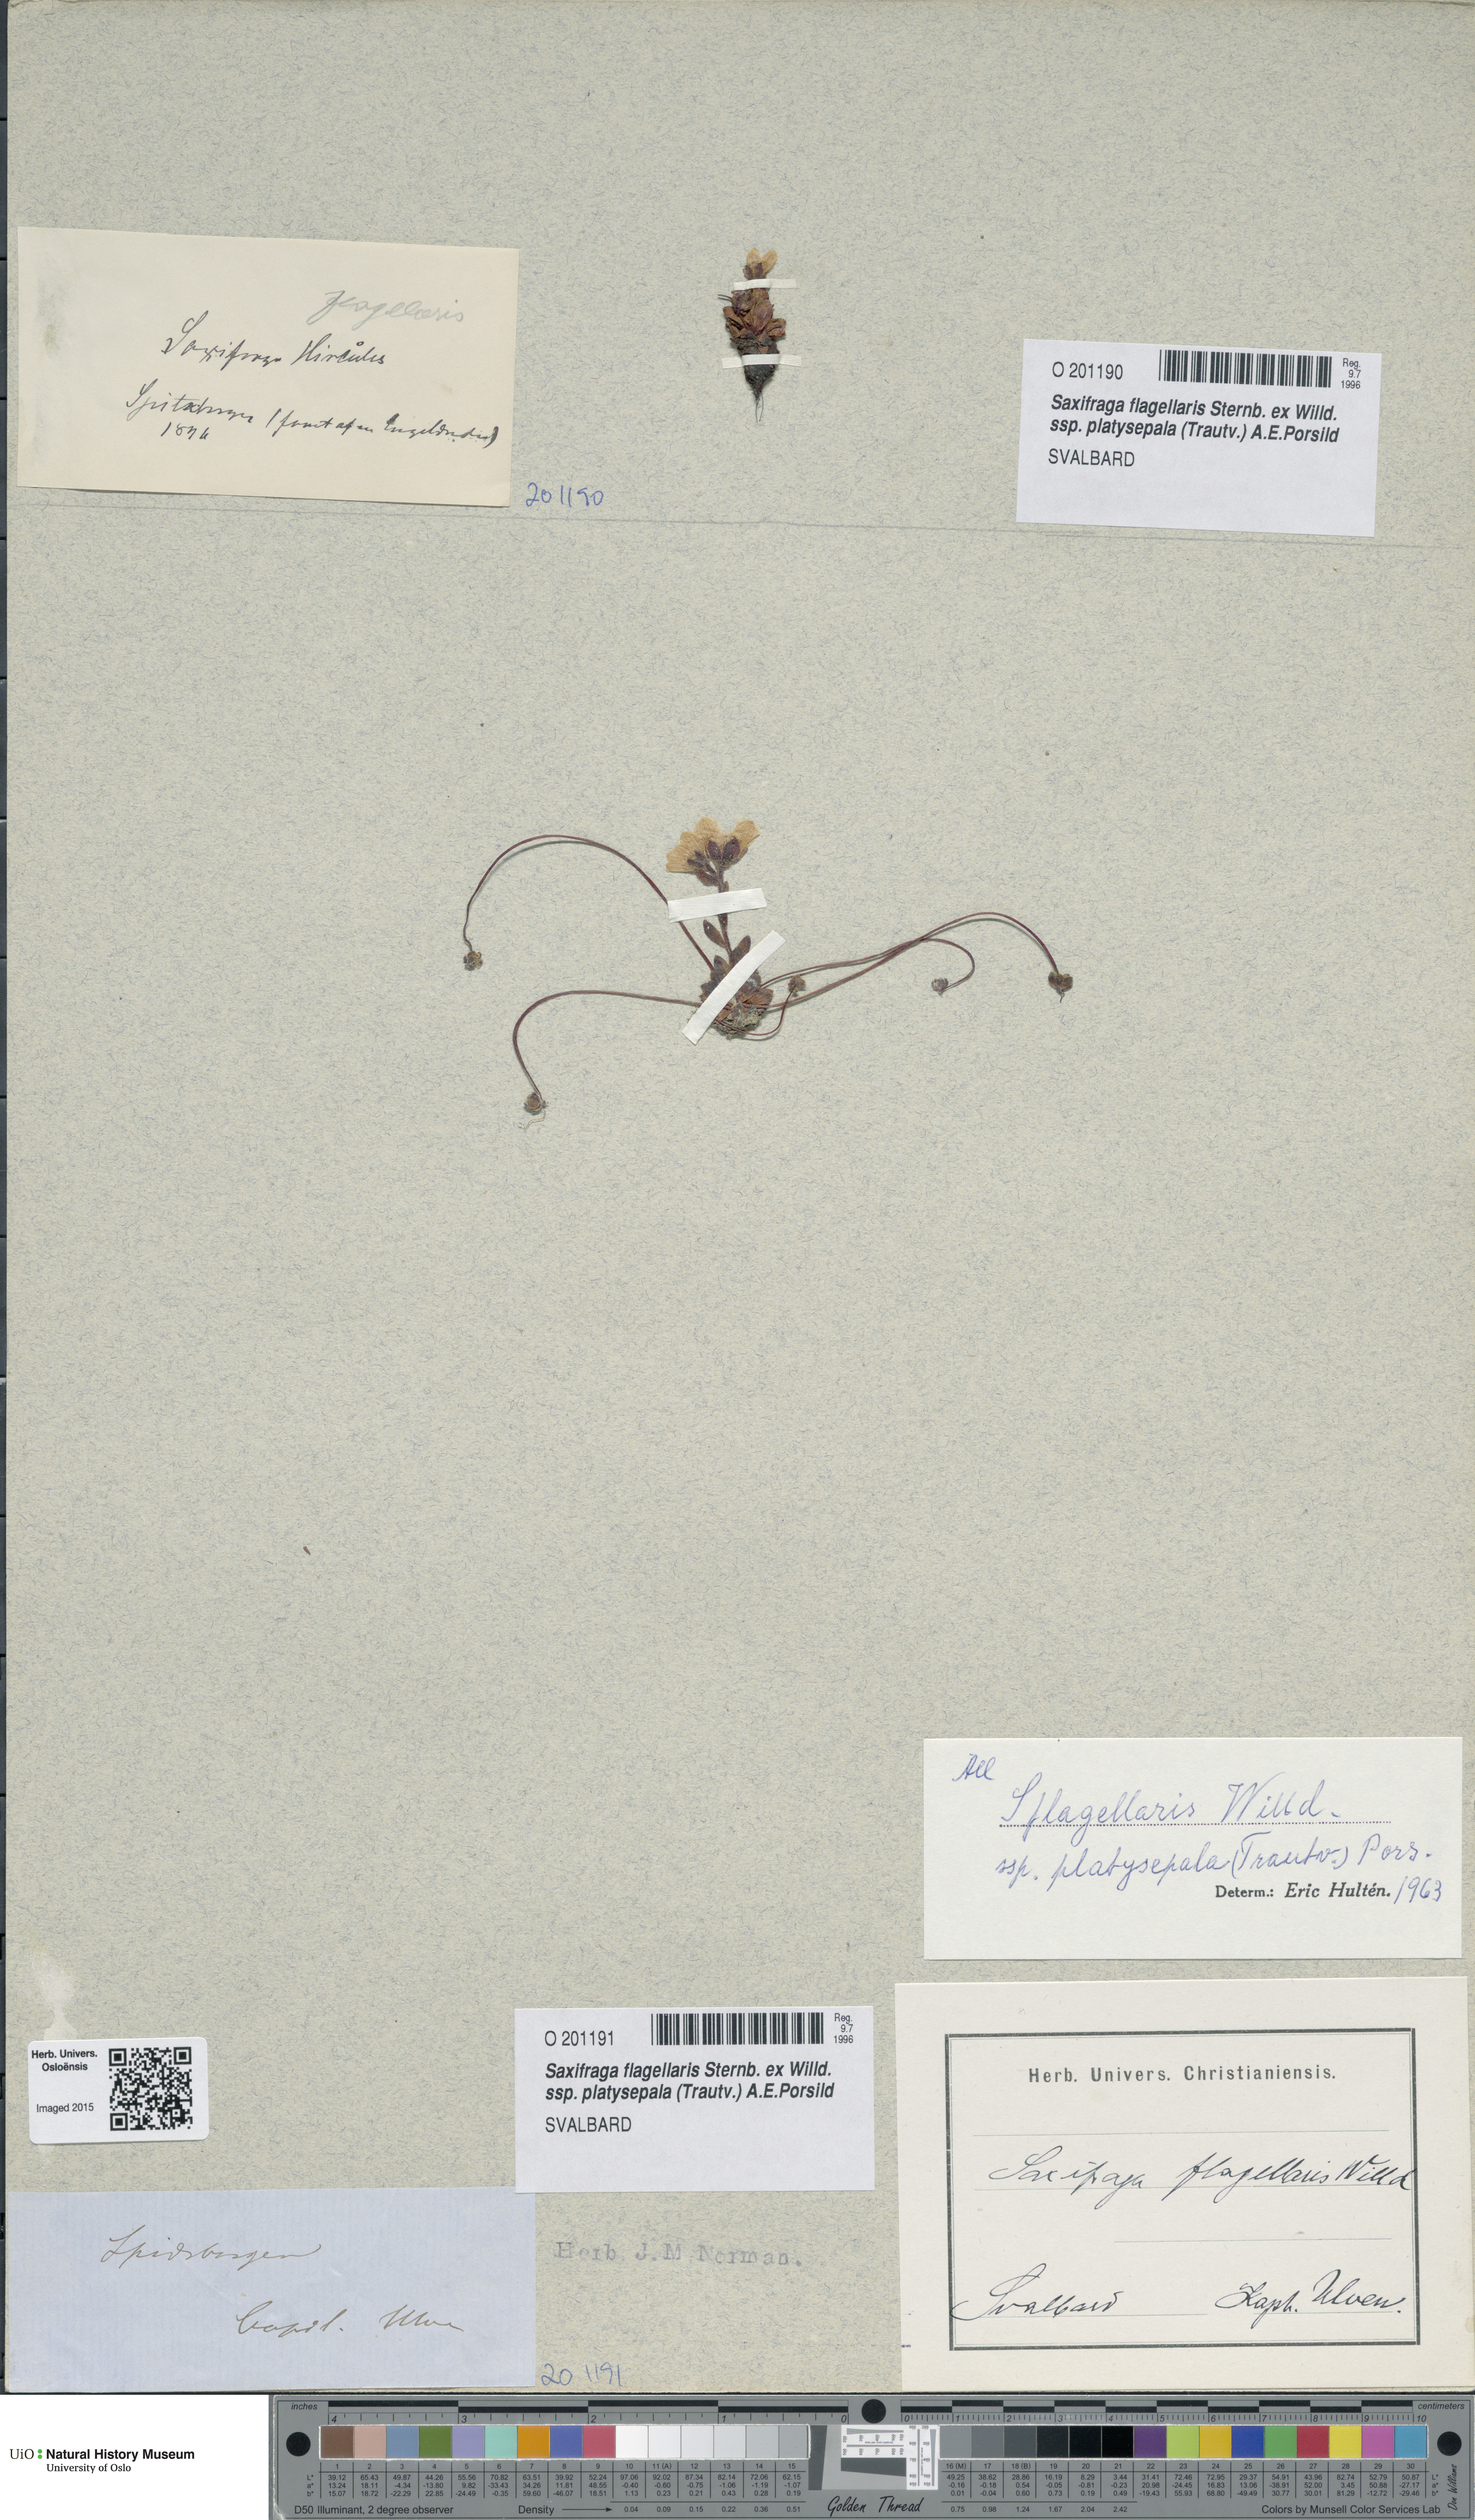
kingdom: Plantae
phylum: Tracheophyta
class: Magnoliopsida
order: Saxifragales
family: Saxifragaceae
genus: Saxifraga
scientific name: Saxifraga platysepala
